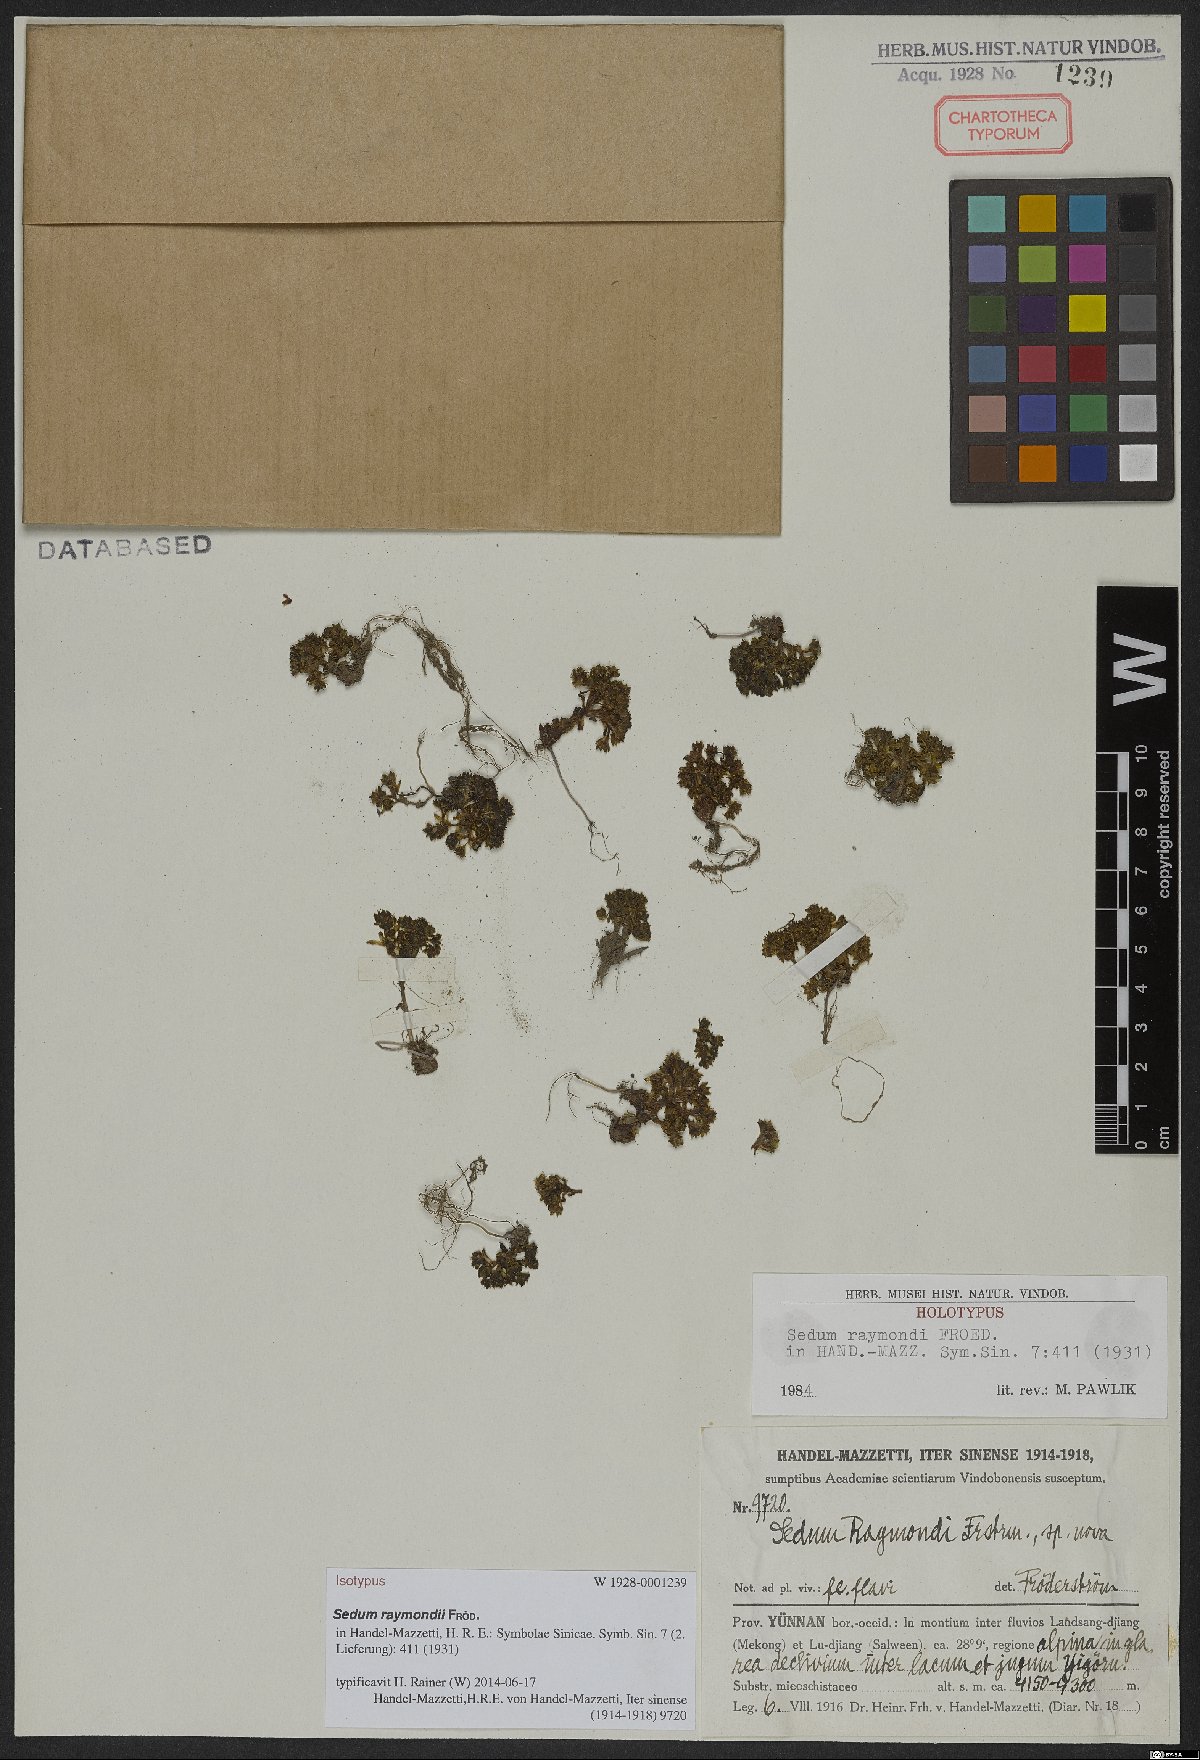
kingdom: Plantae
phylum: Tracheophyta
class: Magnoliopsida
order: Saxifragales
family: Crassulaceae
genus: Sedum
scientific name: Sedum raymondii
